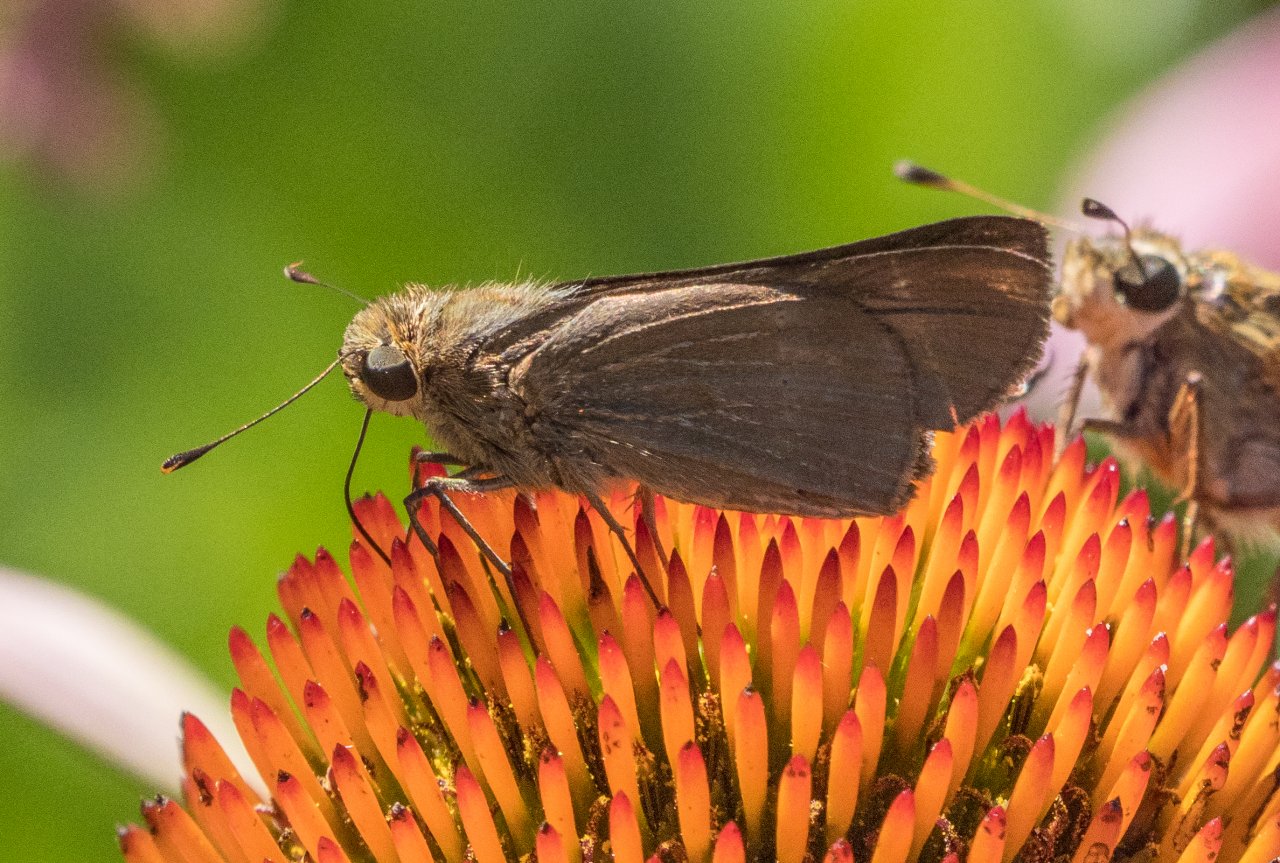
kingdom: Animalia
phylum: Arthropoda
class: Insecta
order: Lepidoptera
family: Hesperiidae
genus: Panoquina
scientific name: Panoquina ocola
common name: Ocola Skipper
